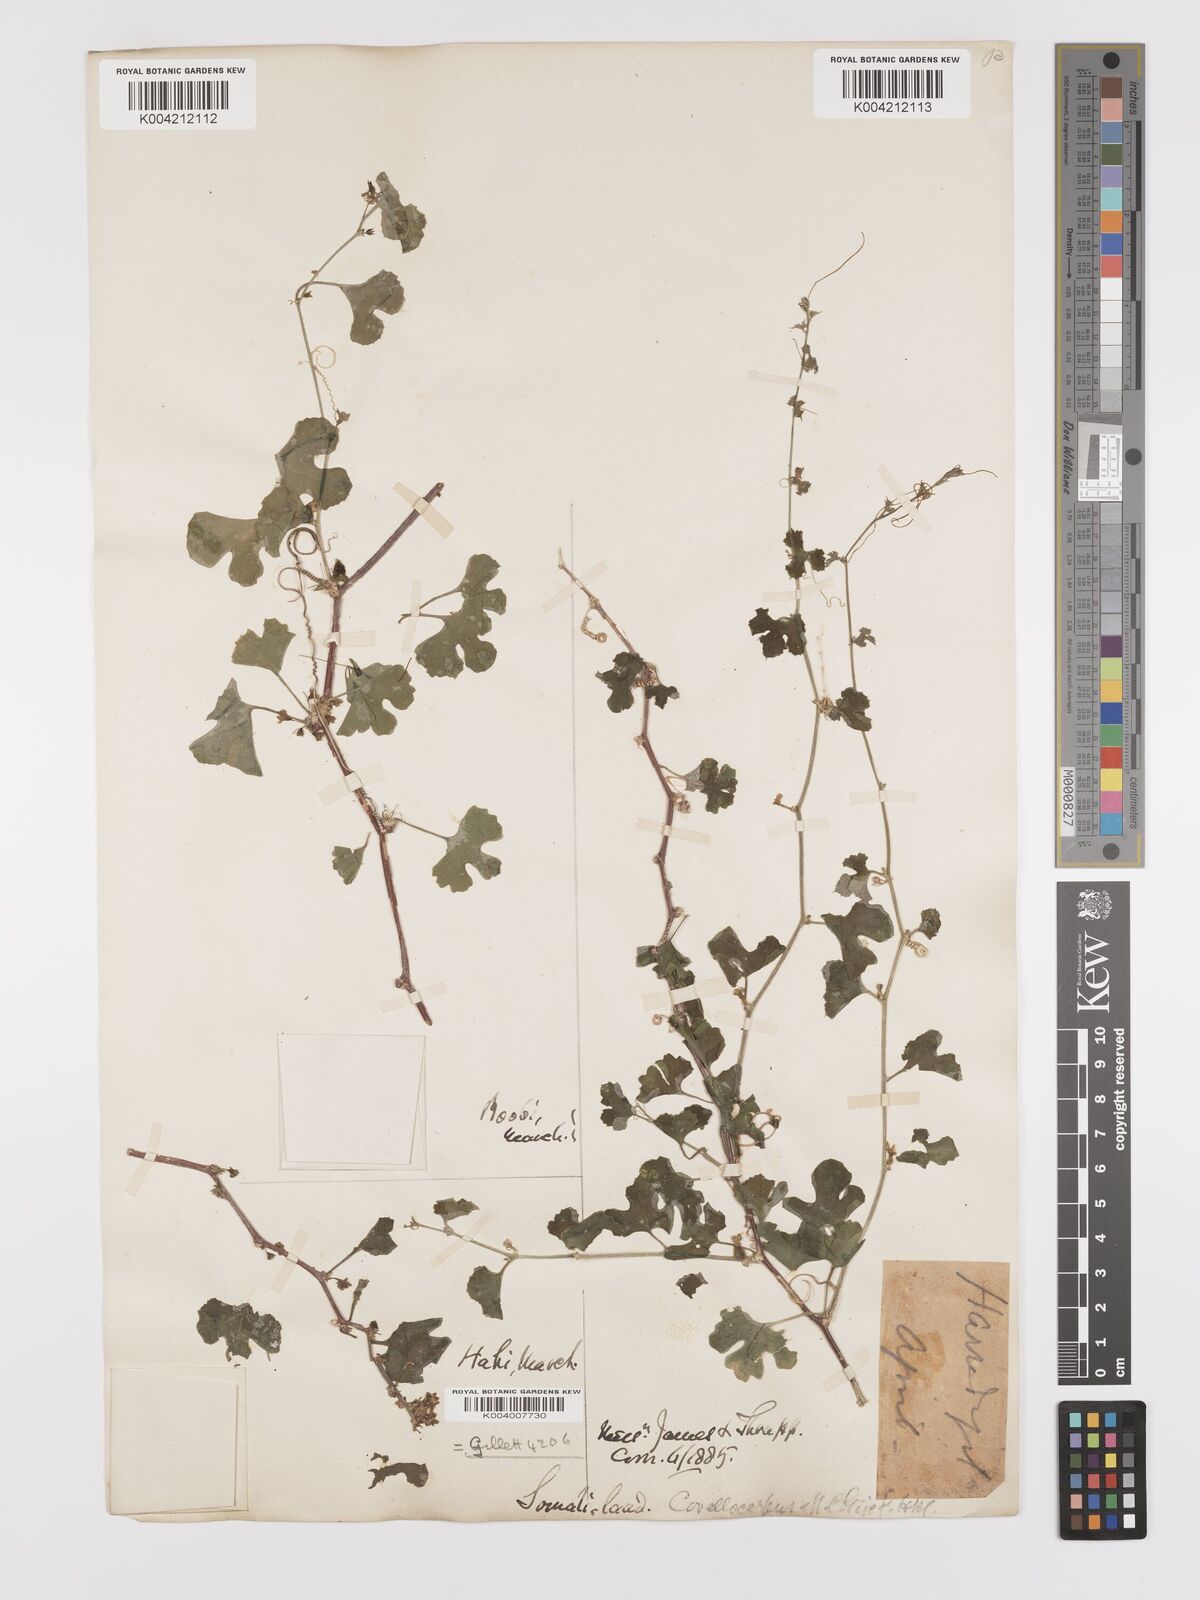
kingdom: Plantae
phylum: Tracheophyta
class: Magnoliopsida
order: Cucurbitales
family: Cucurbitaceae
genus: Kedrostis
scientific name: Kedrostis gijef
